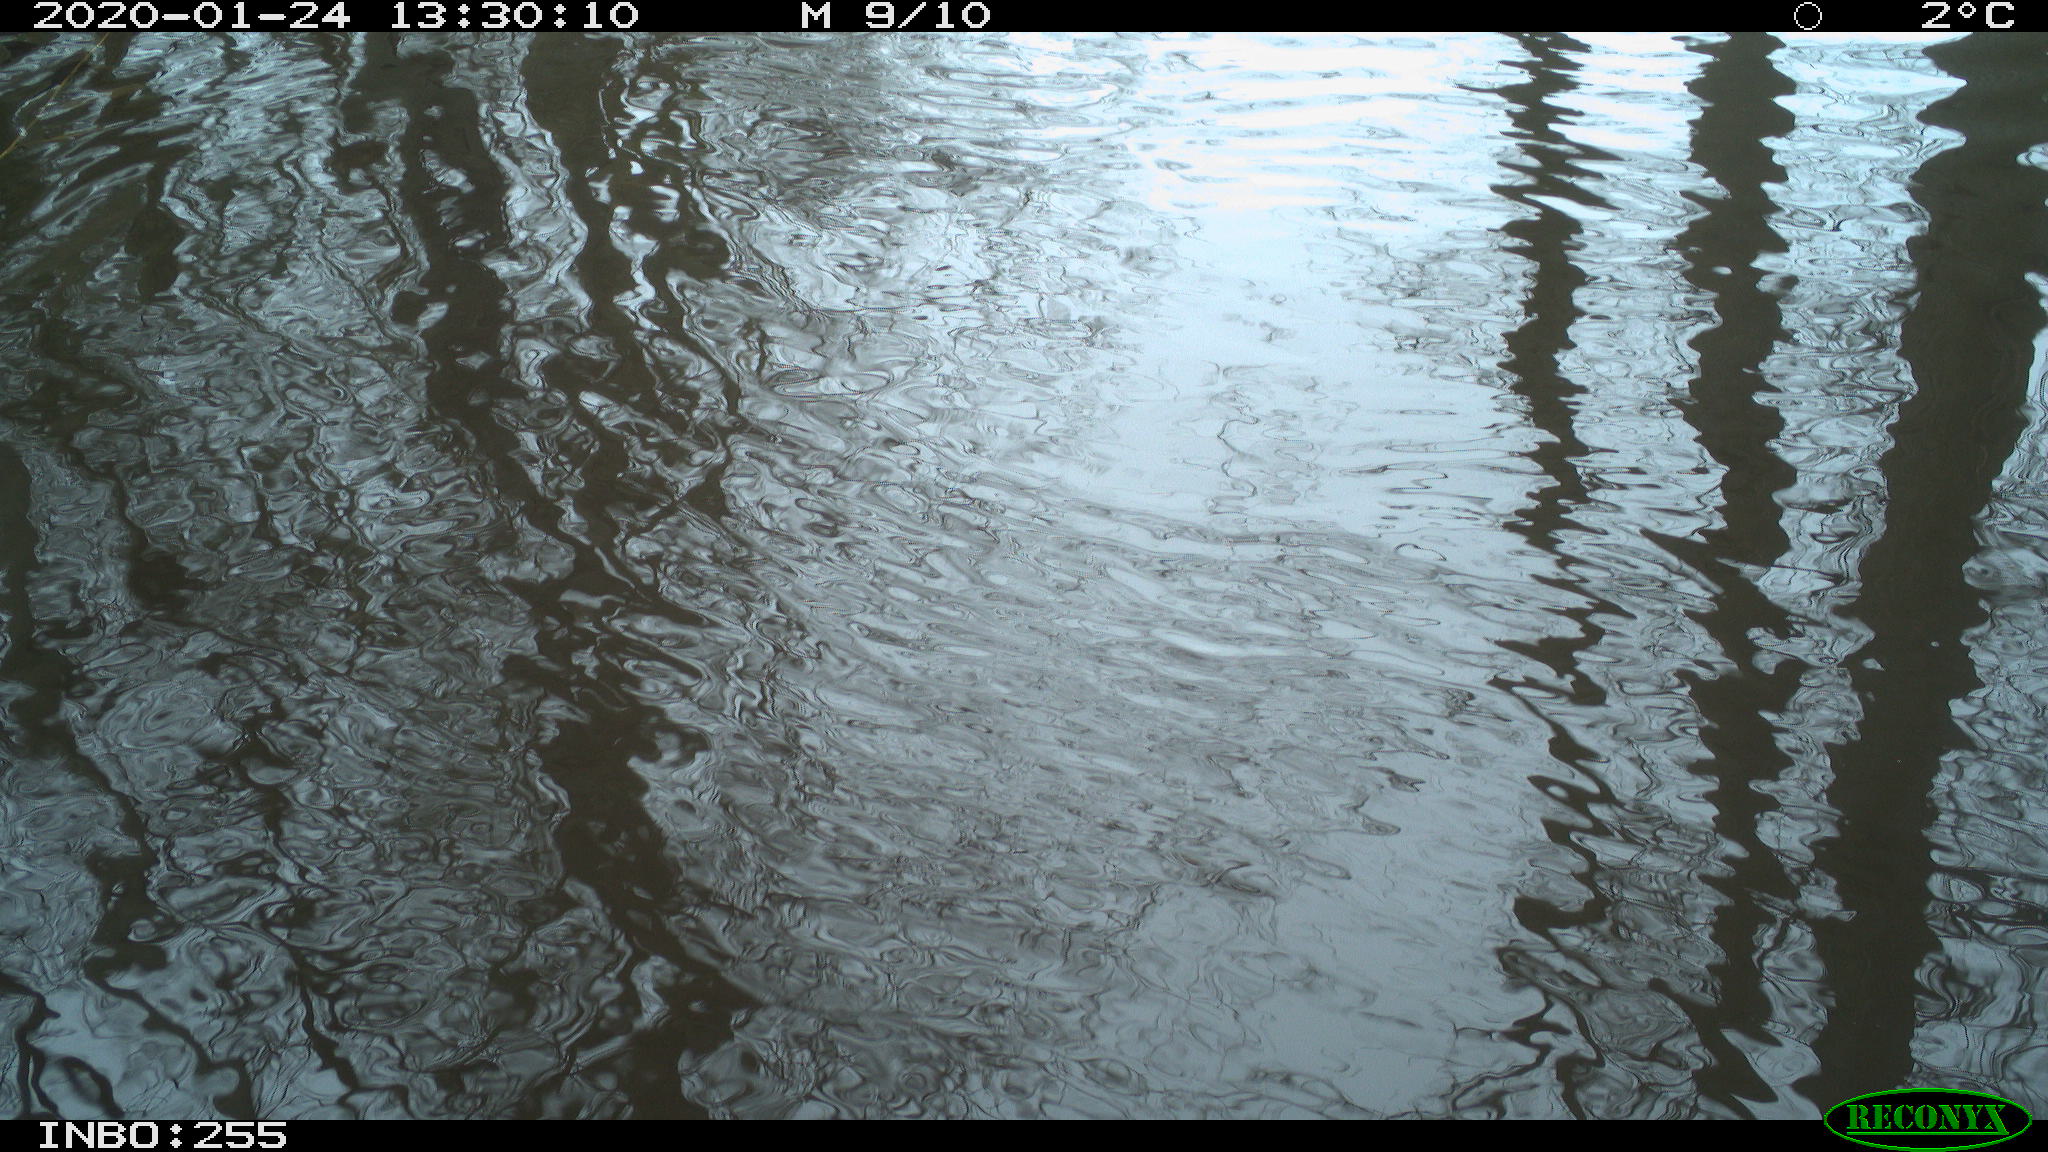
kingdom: Animalia
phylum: Chordata
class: Aves
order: Gruiformes
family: Rallidae
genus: Fulica
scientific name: Fulica atra
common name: Eurasian coot
